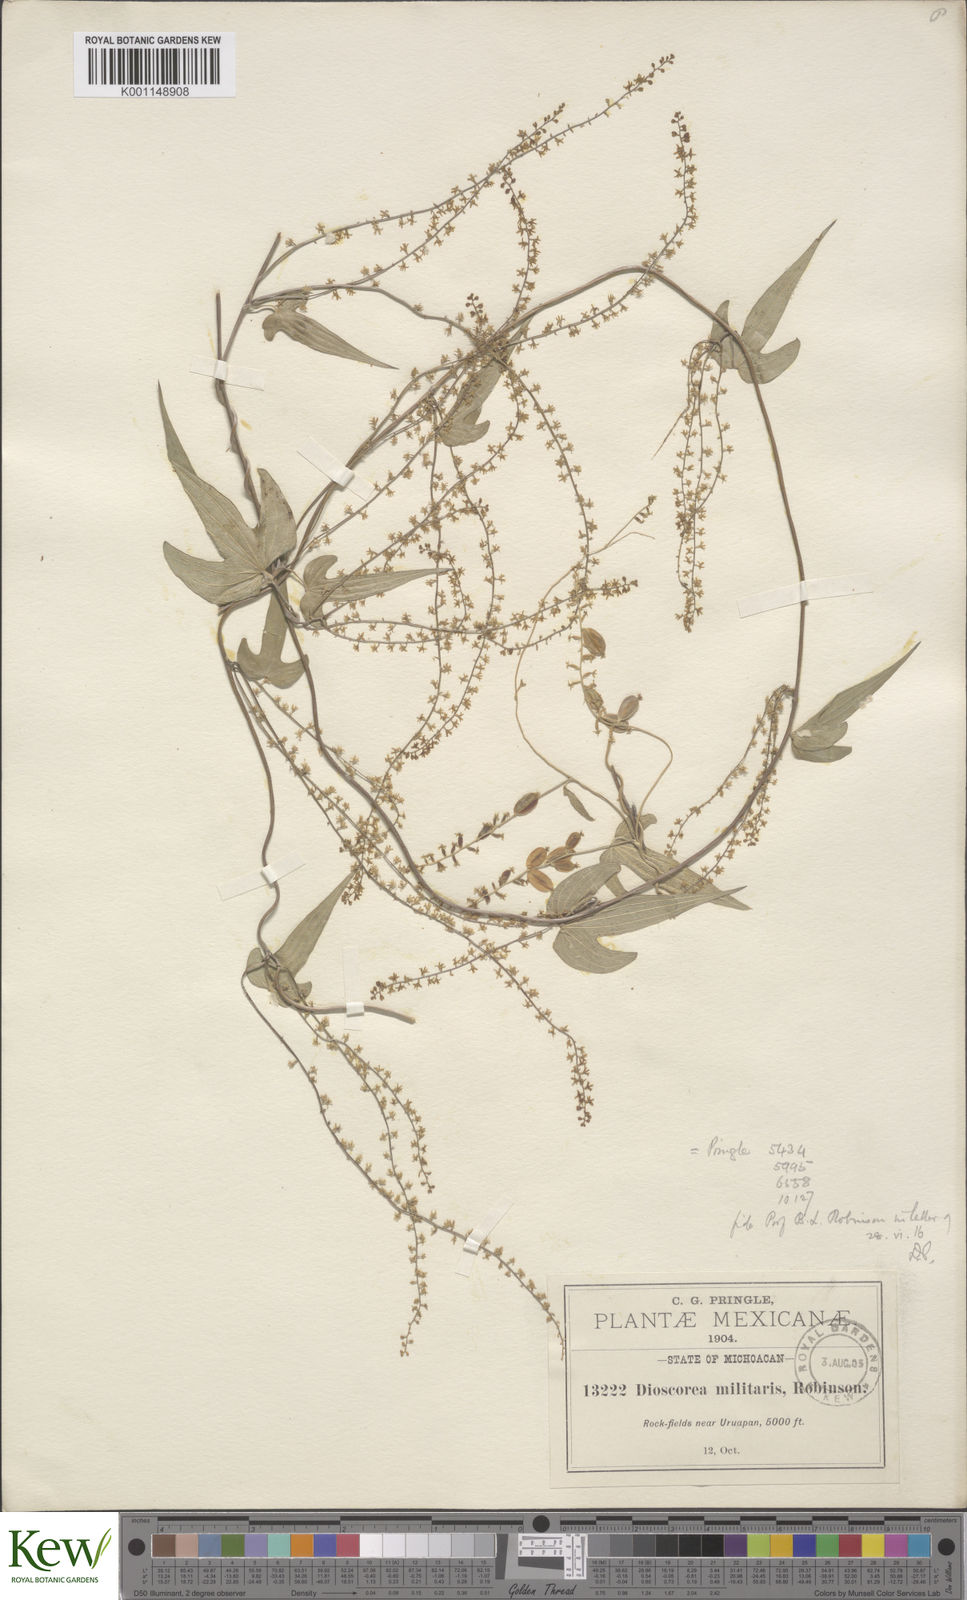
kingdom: Plantae
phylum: Tracheophyta
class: Liliopsida
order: Dioscoreales
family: Dioscoreaceae
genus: Dioscorea
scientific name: Dioscorea triandria
